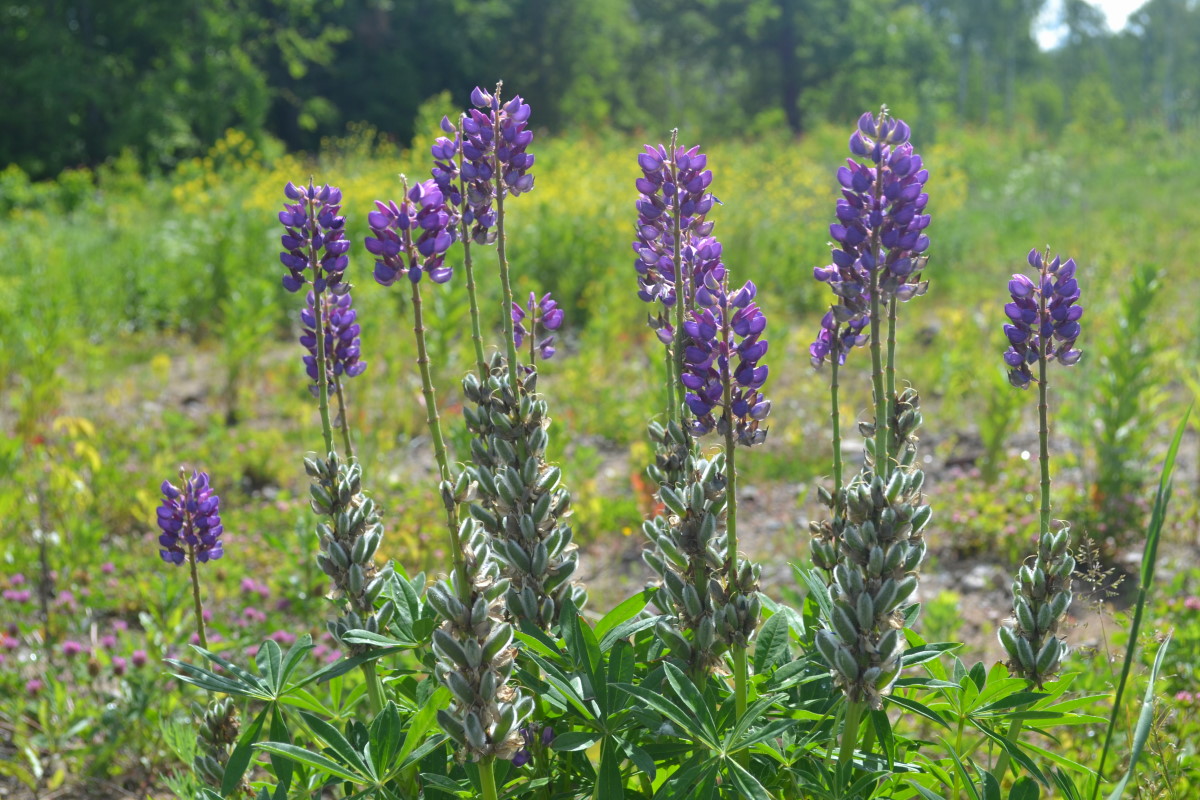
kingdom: Plantae
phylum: Tracheophyta
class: Magnoliopsida
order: Fabales
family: Fabaceae
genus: Lupinus
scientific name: Lupinus polyphyllus
